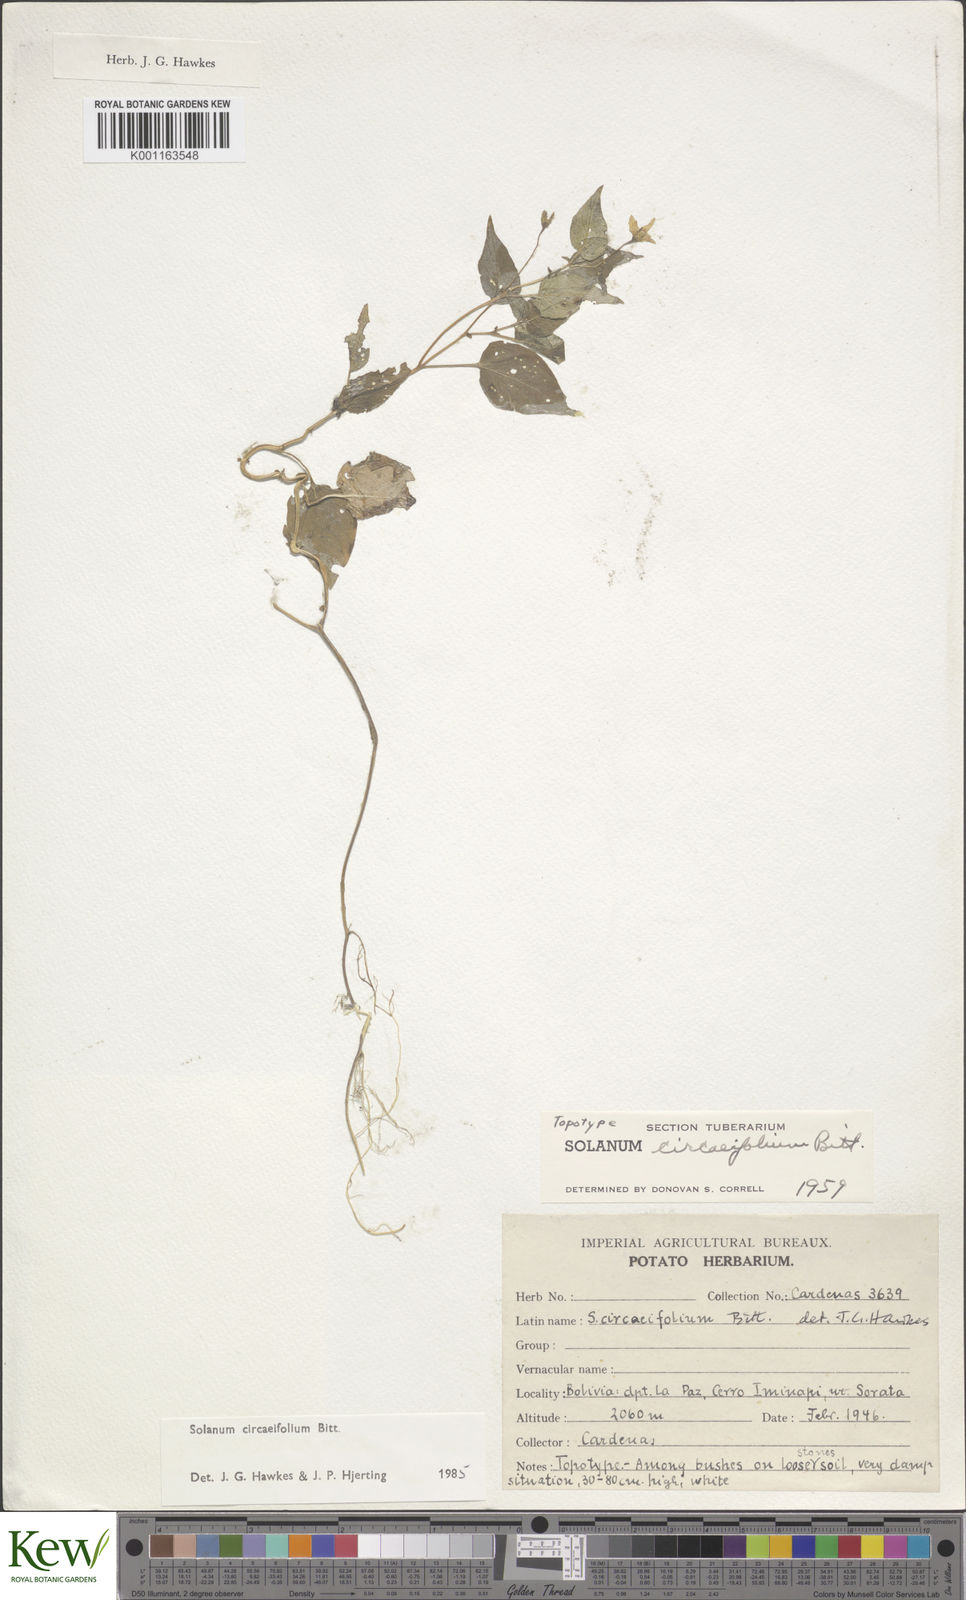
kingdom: Plantae
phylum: Tracheophyta
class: Magnoliopsida
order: Solanales
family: Solanaceae
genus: Solanum
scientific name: Solanum stipuloideum
